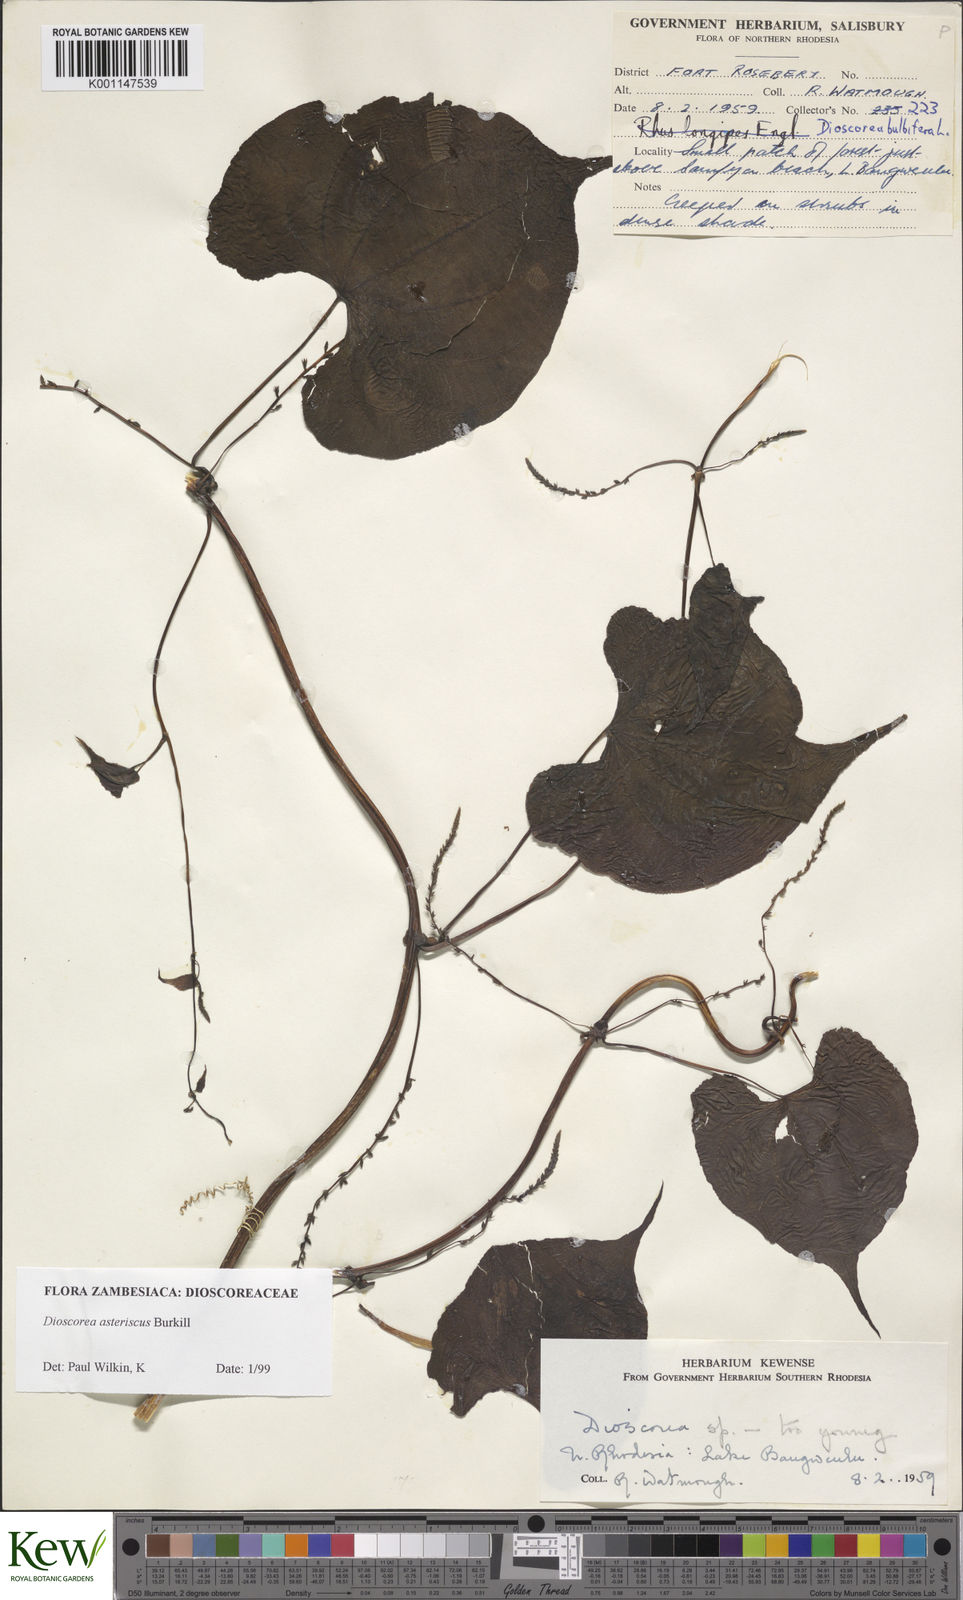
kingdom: Plantae
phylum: Tracheophyta
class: Liliopsida
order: Dioscoreales
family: Dioscoreaceae
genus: Dioscorea
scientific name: Dioscorea asteriscus
